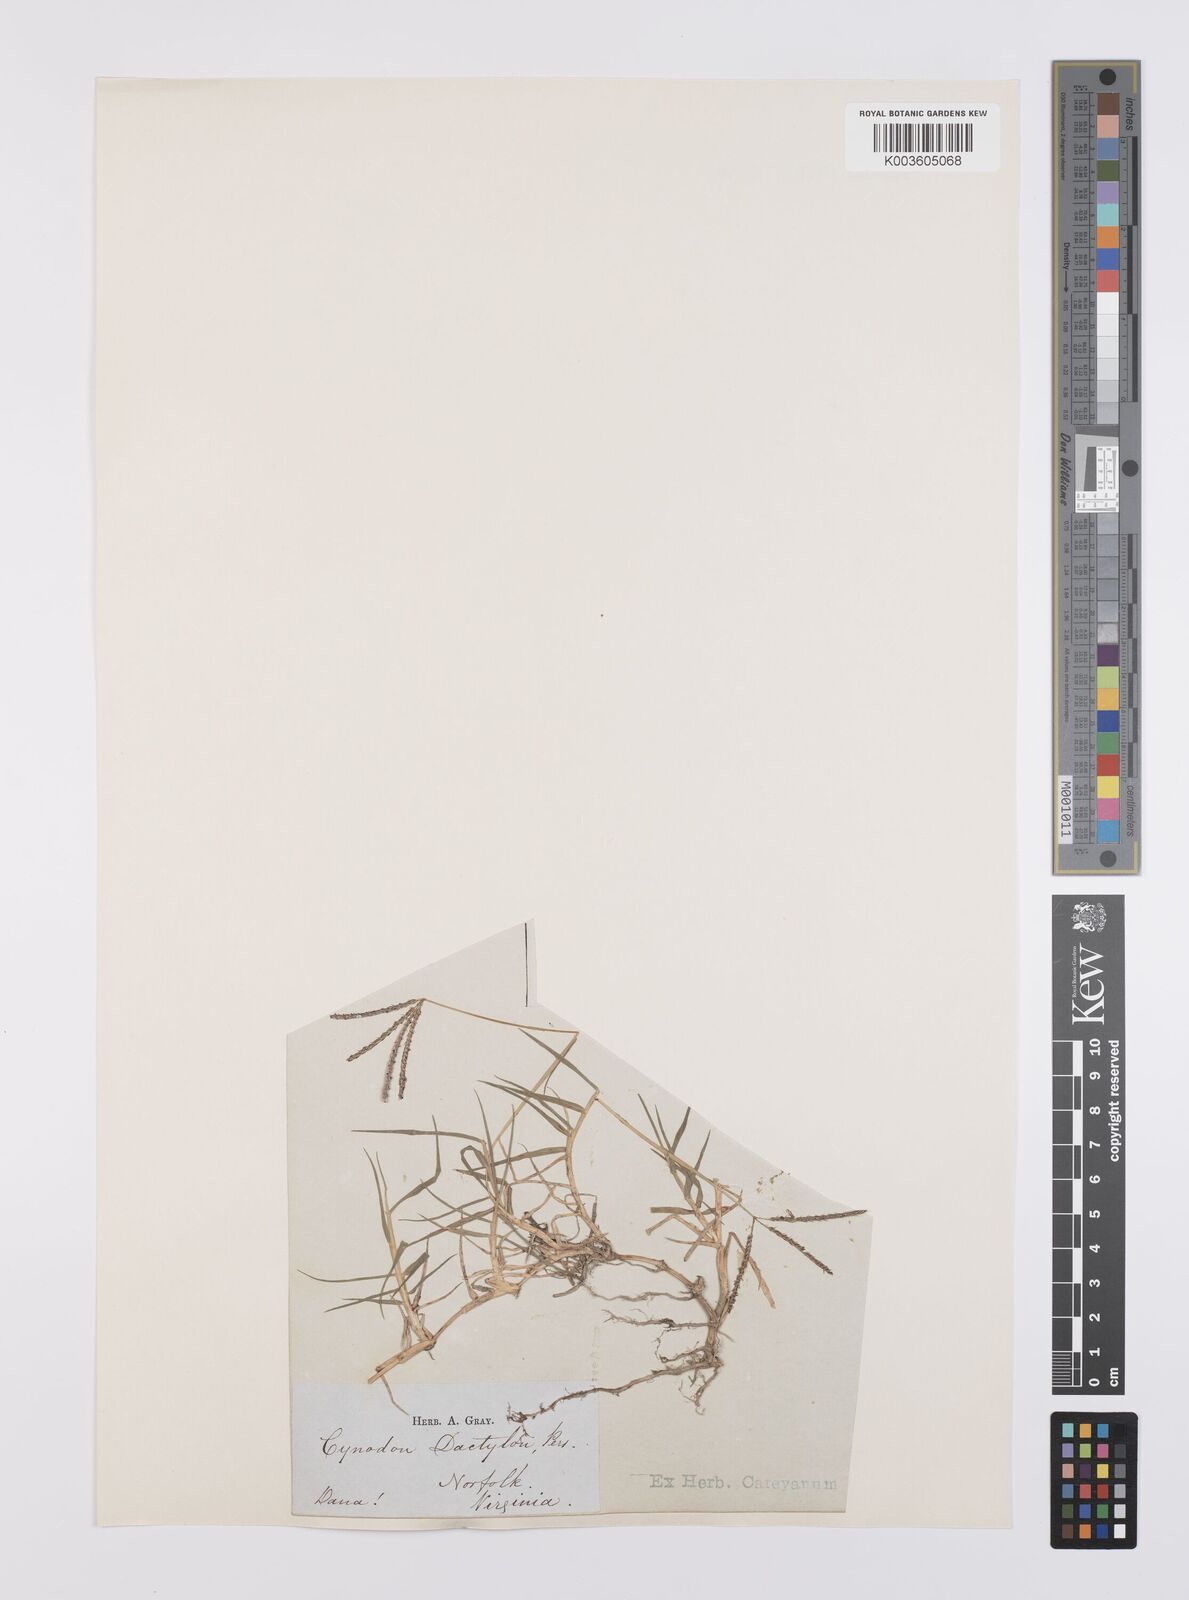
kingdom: Plantae
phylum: Tracheophyta
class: Liliopsida
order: Poales
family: Poaceae
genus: Cynodon
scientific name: Cynodon dactylon
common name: Bermuda grass
